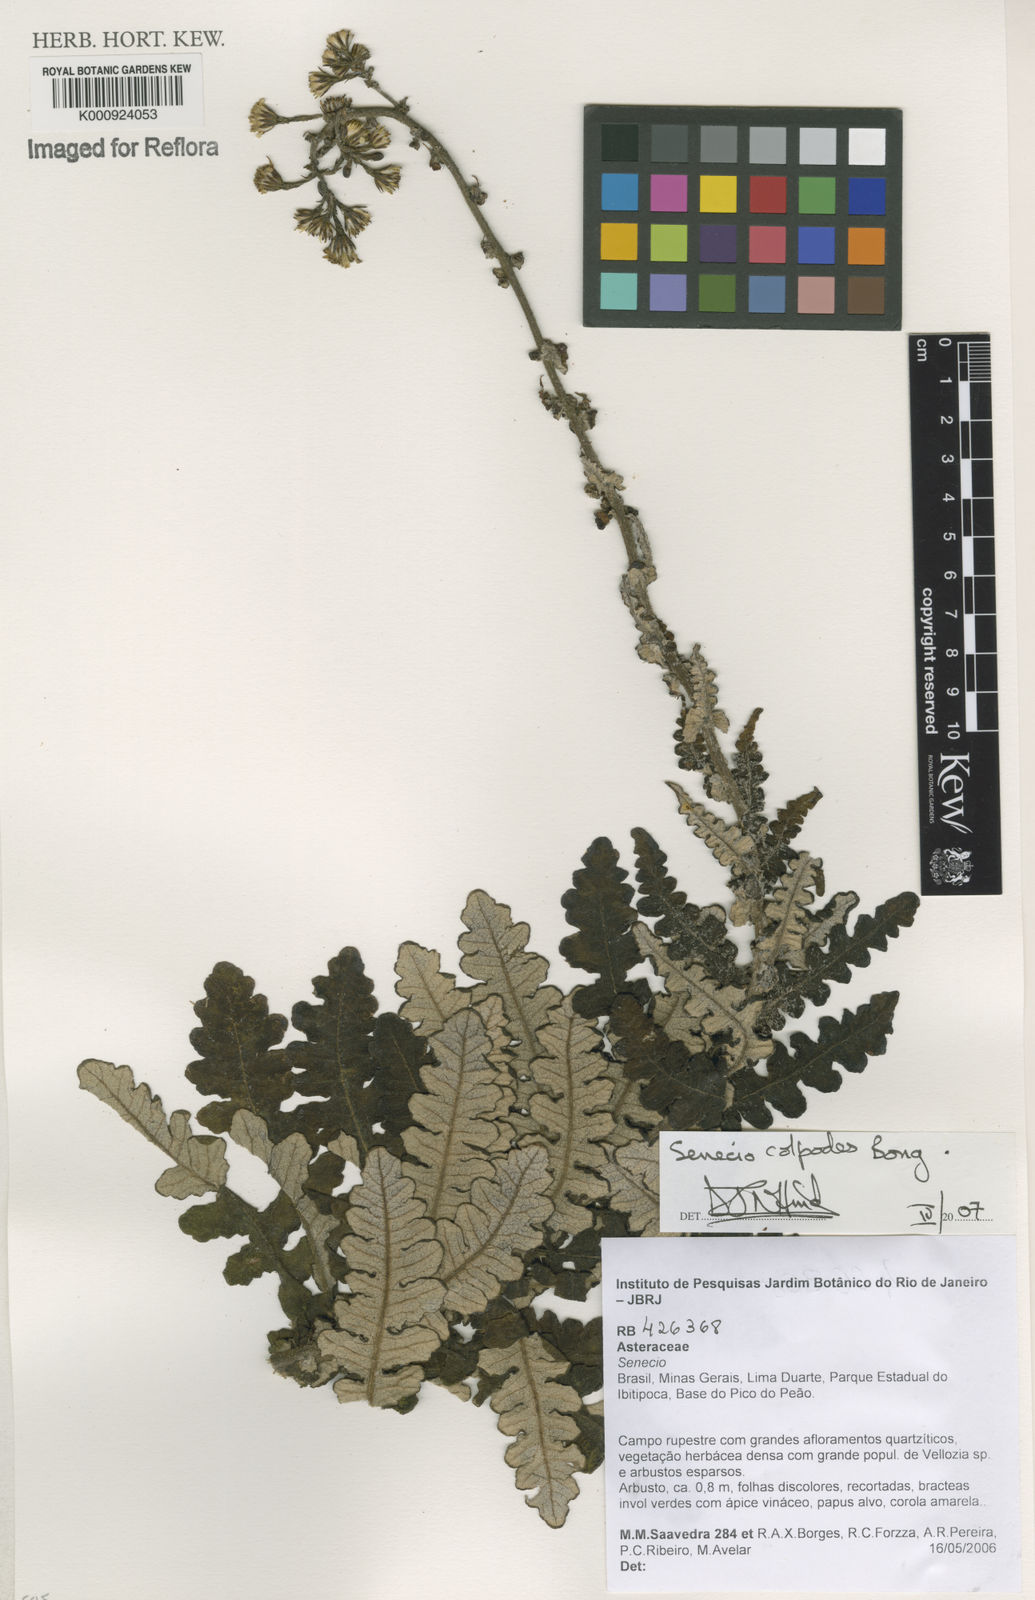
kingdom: Plantae
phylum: Tracheophyta
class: Magnoliopsida
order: Asterales
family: Asteraceae
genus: Senecio
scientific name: Senecio colpodes
